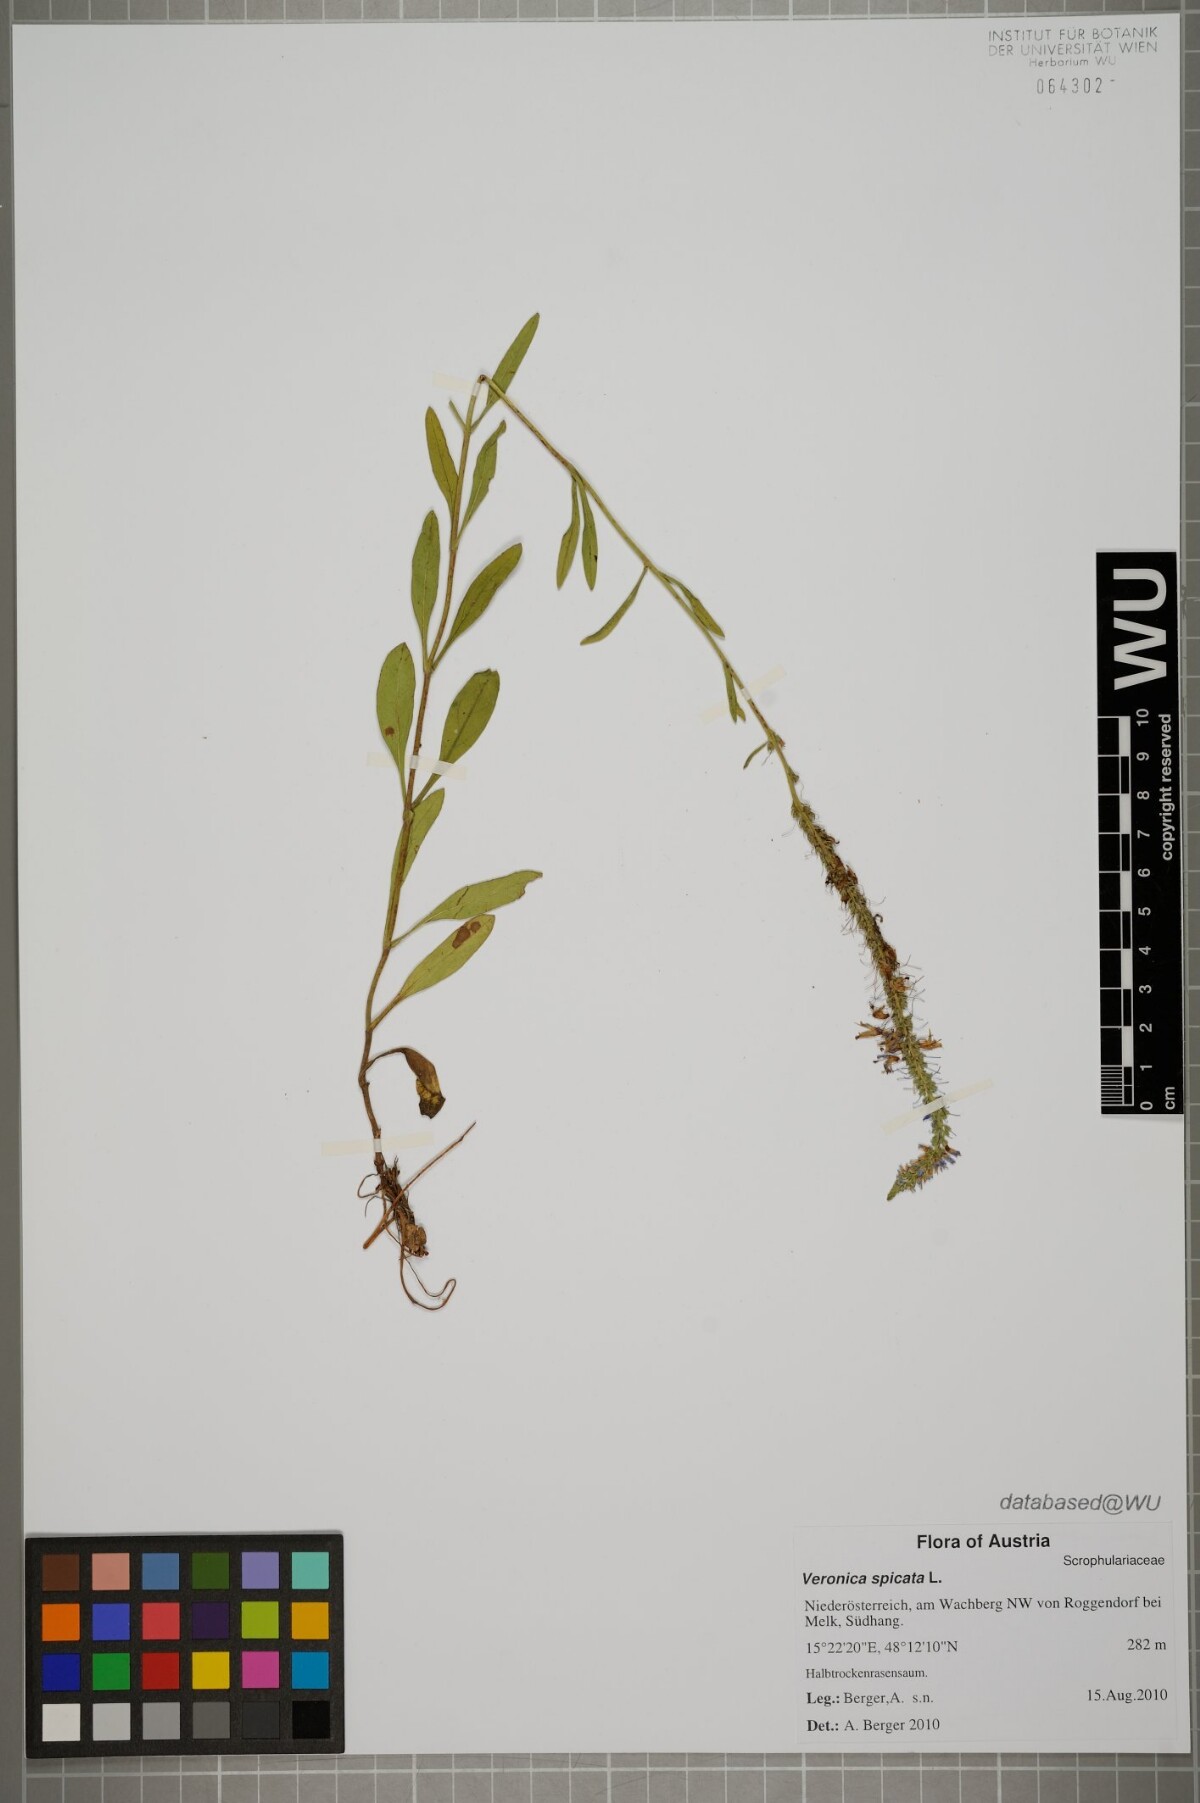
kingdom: Plantae
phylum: Tracheophyta
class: Magnoliopsida
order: Lamiales
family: Plantaginaceae
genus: Veronica
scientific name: Veronica spicata
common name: Spiked speedwell
